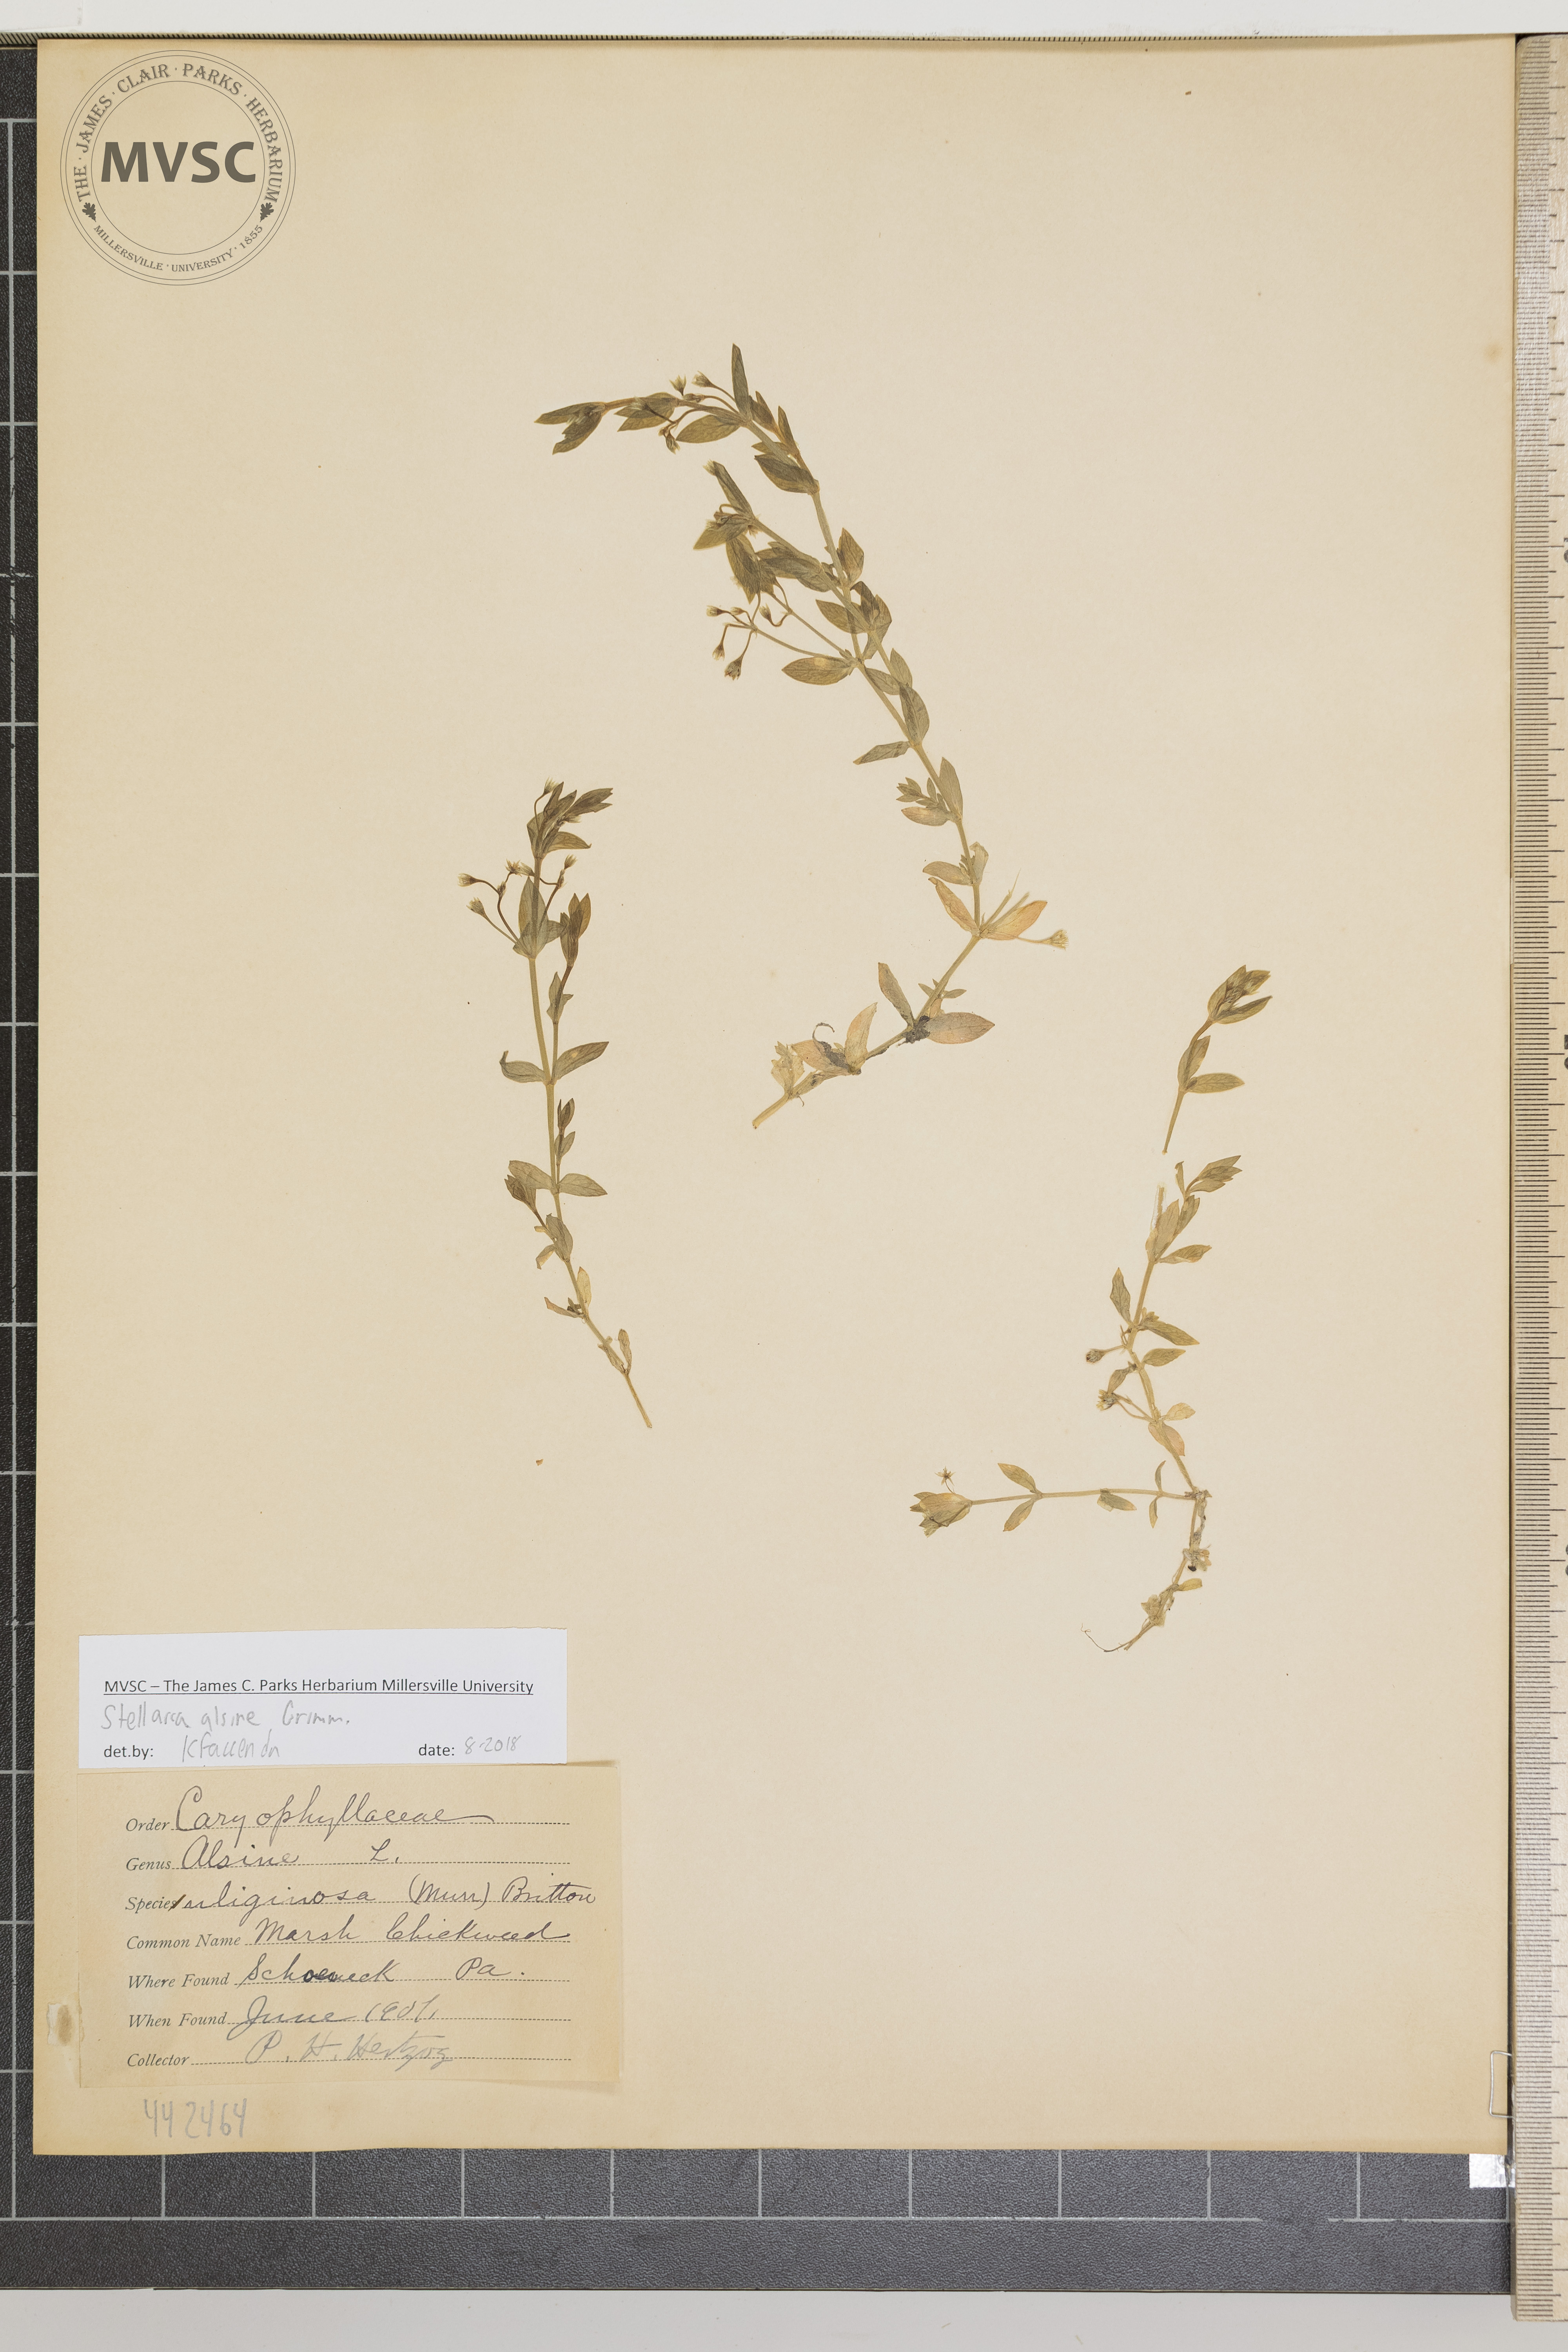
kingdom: Plantae
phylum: Tracheophyta
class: Magnoliopsida
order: Caryophyllales
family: Caryophyllaceae
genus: Stellaria
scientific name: Stellaria alsine
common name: Marsh chickweed
